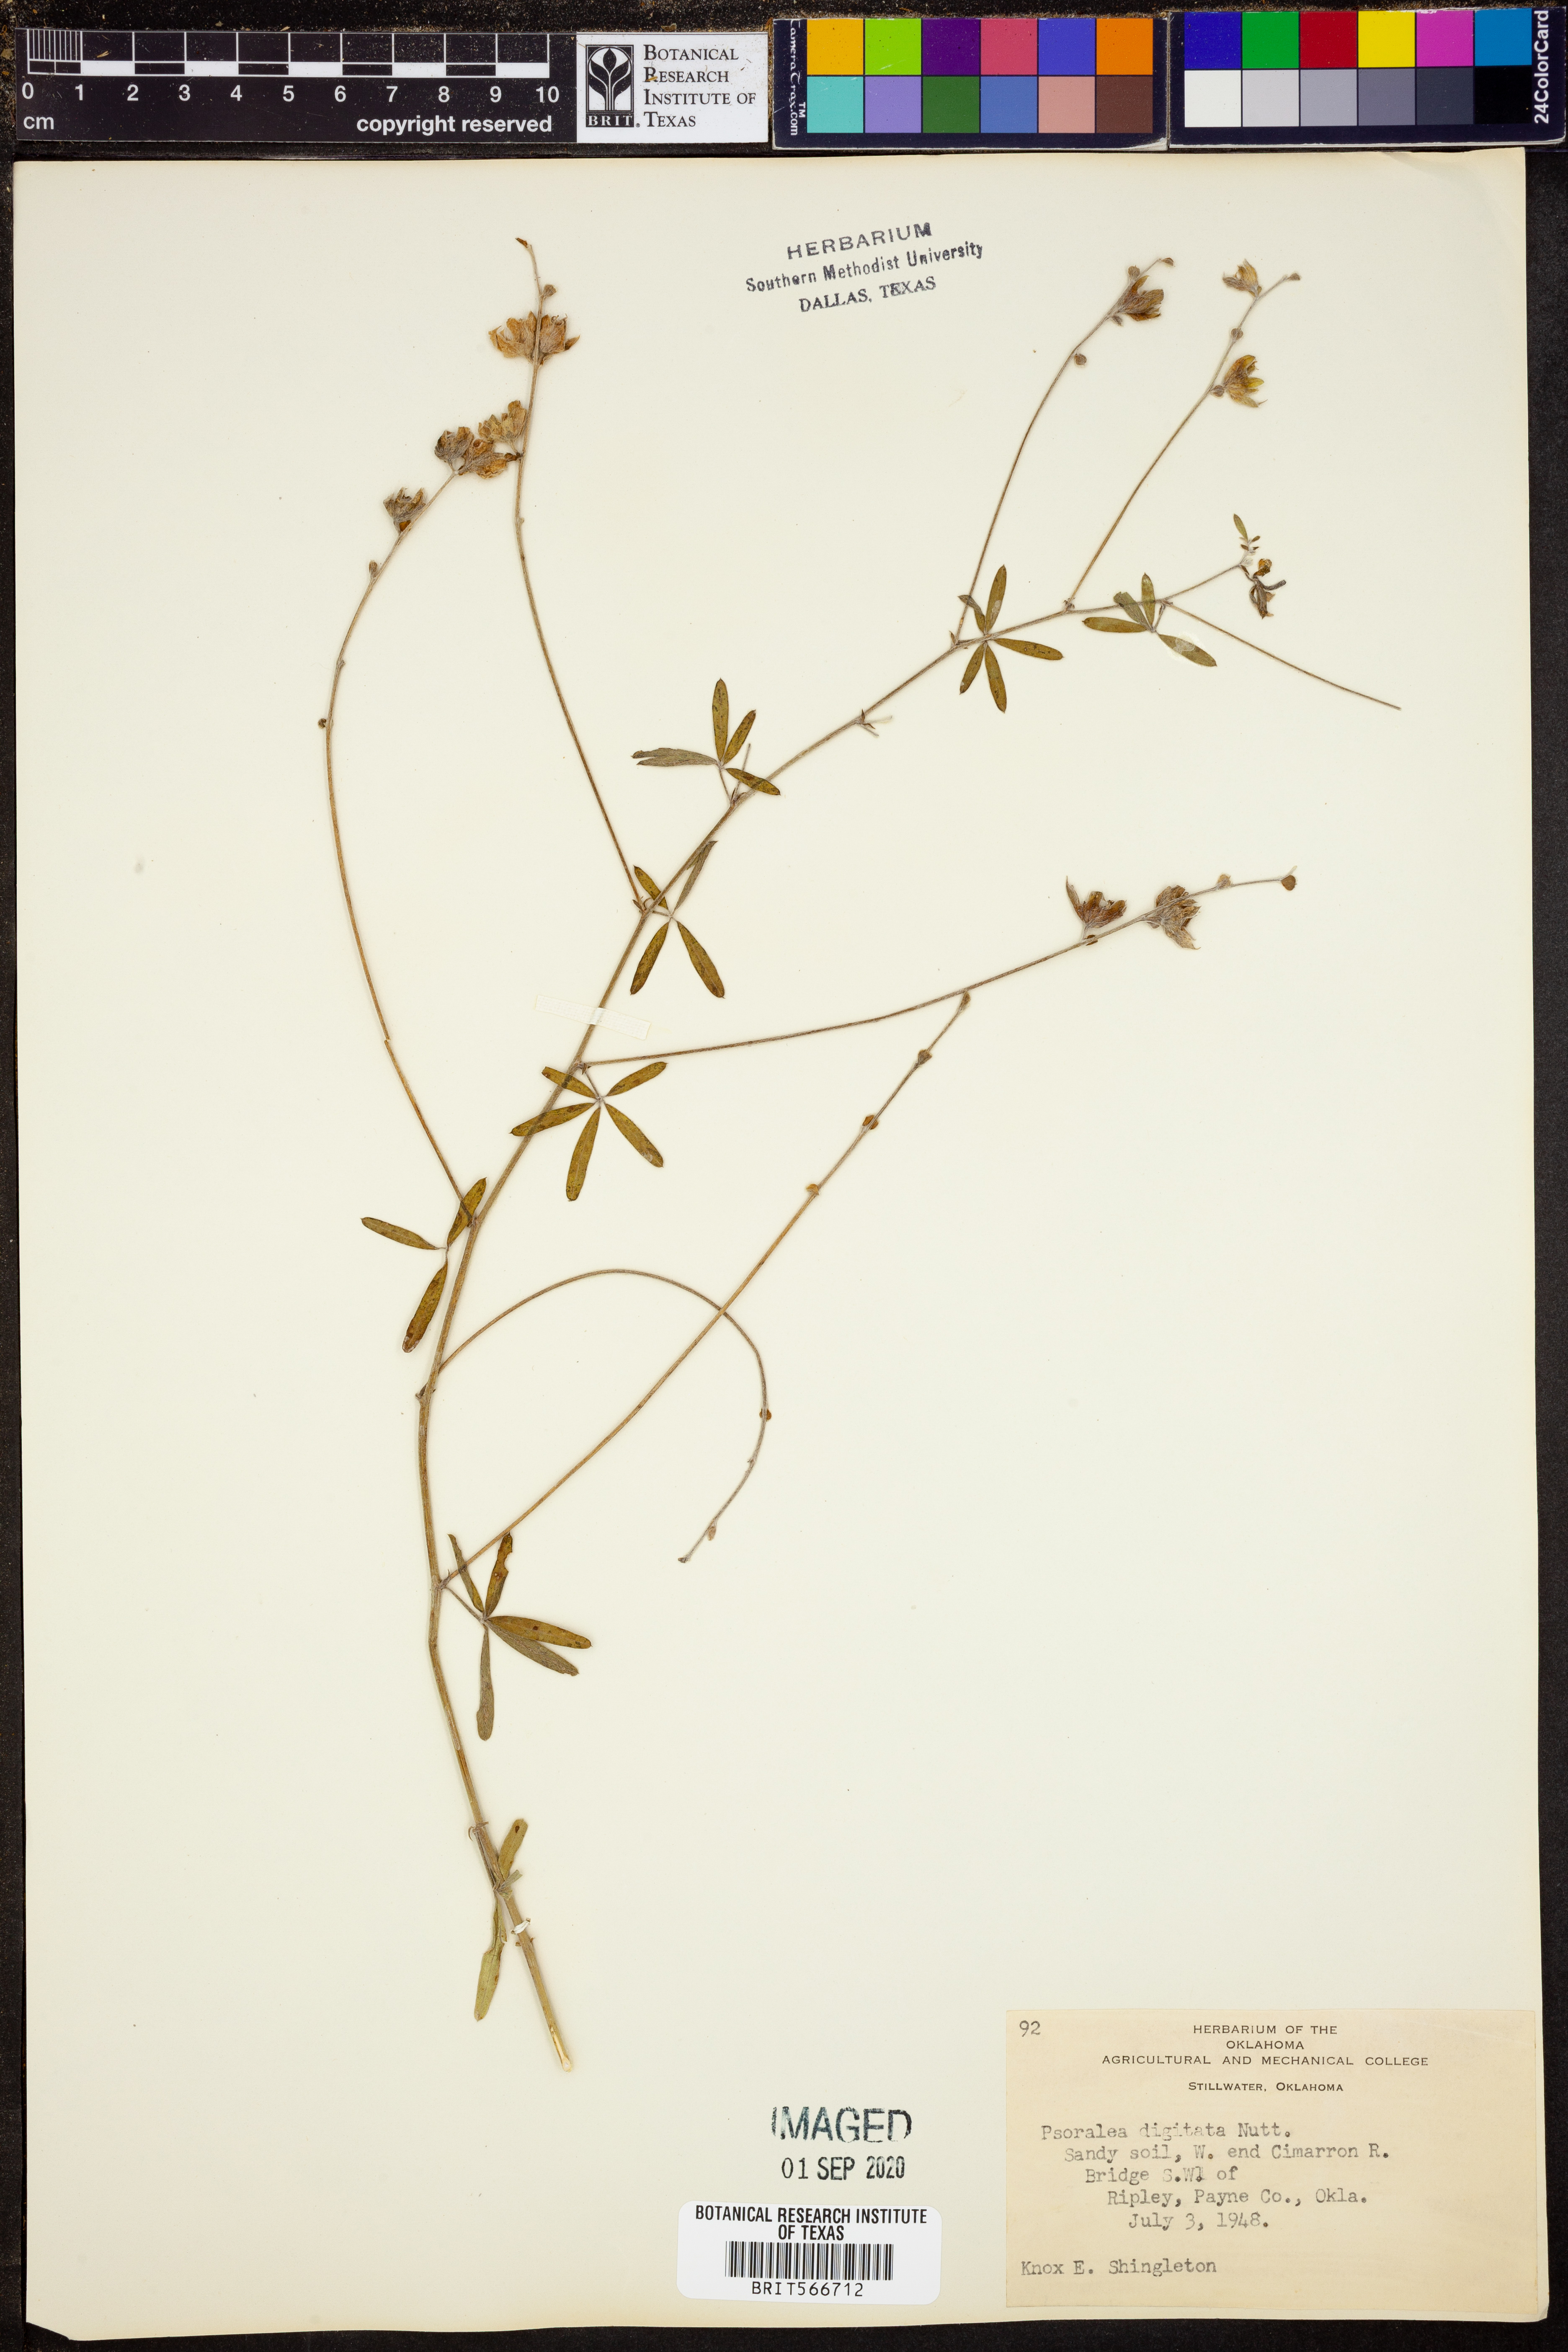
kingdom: Plantae
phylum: Tracheophyta
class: Magnoliopsida
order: Fabales
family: Fabaceae
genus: Pediomelum
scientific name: Pediomelum digitatum
